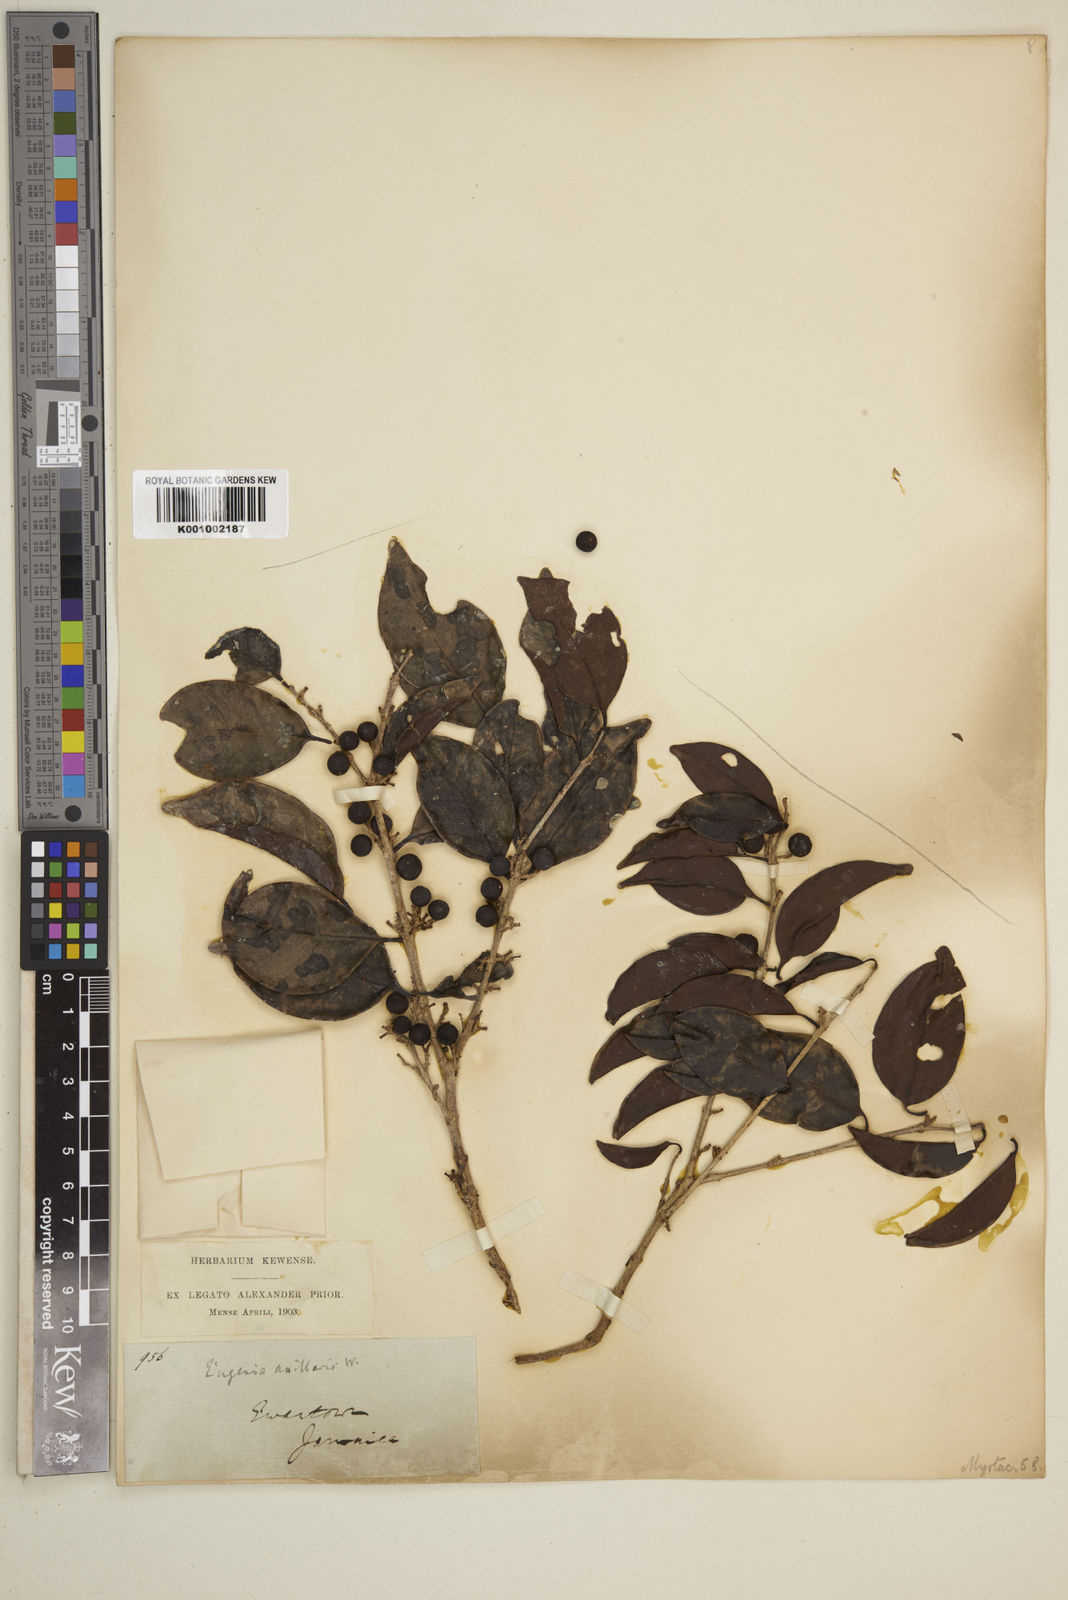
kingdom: Plantae
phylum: Tracheophyta
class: Magnoliopsida
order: Myrtales
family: Myrtaceae
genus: Eugenia
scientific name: Eugenia axillaris
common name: Choaky berry
